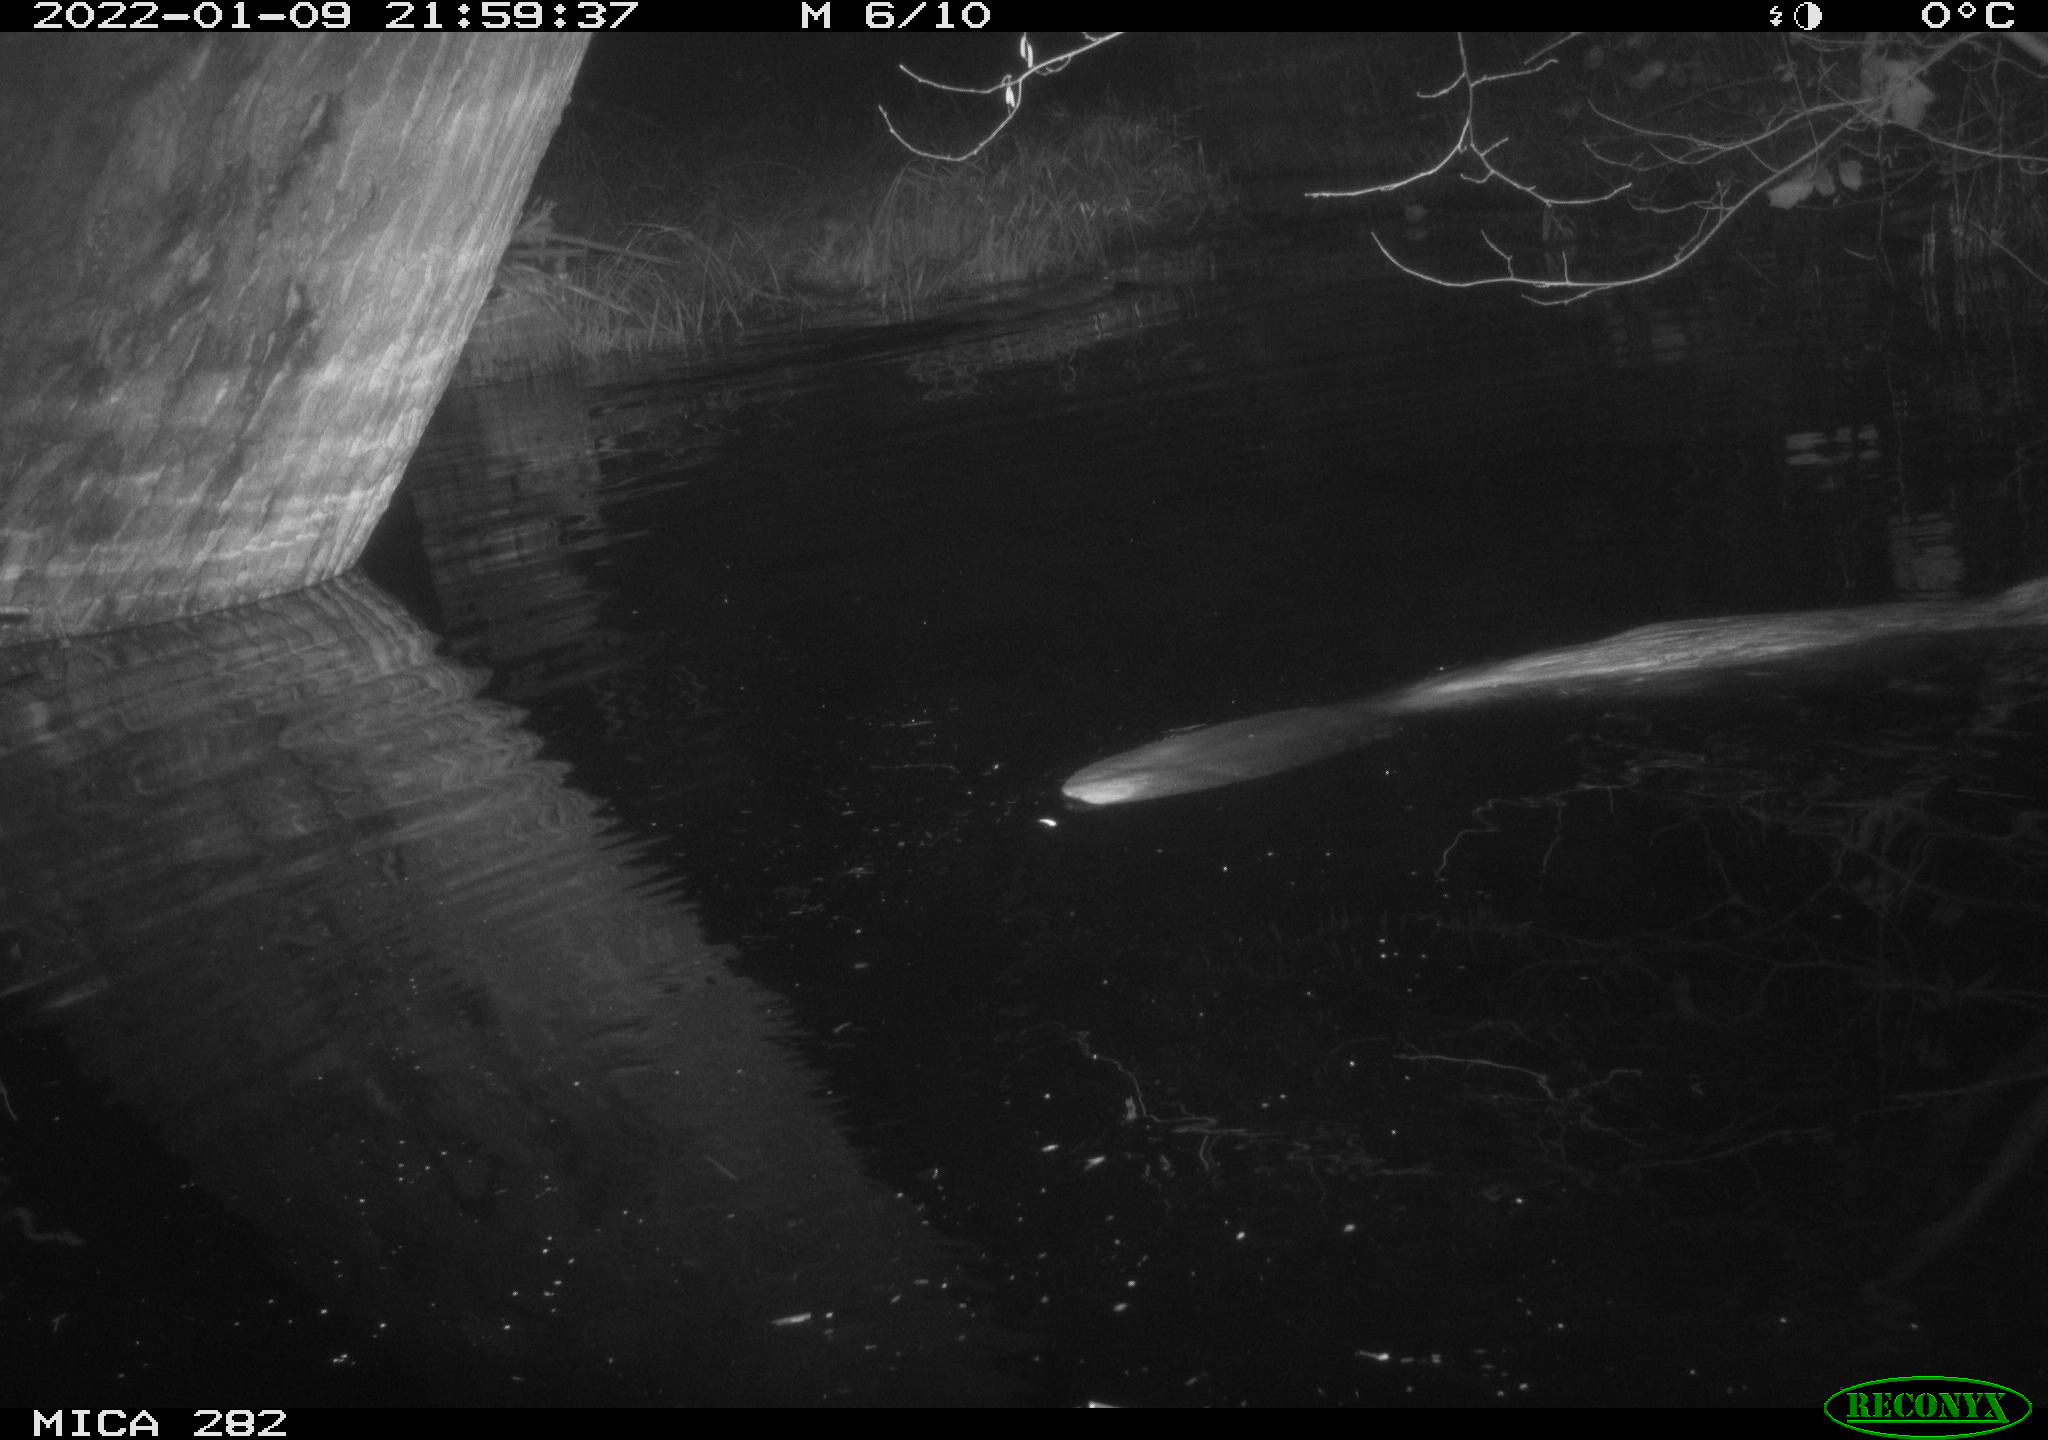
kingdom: Animalia
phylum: Chordata
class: Mammalia
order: Rodentia
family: Castoridae
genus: Castor
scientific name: Castor fiber
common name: Eurasian beaver
